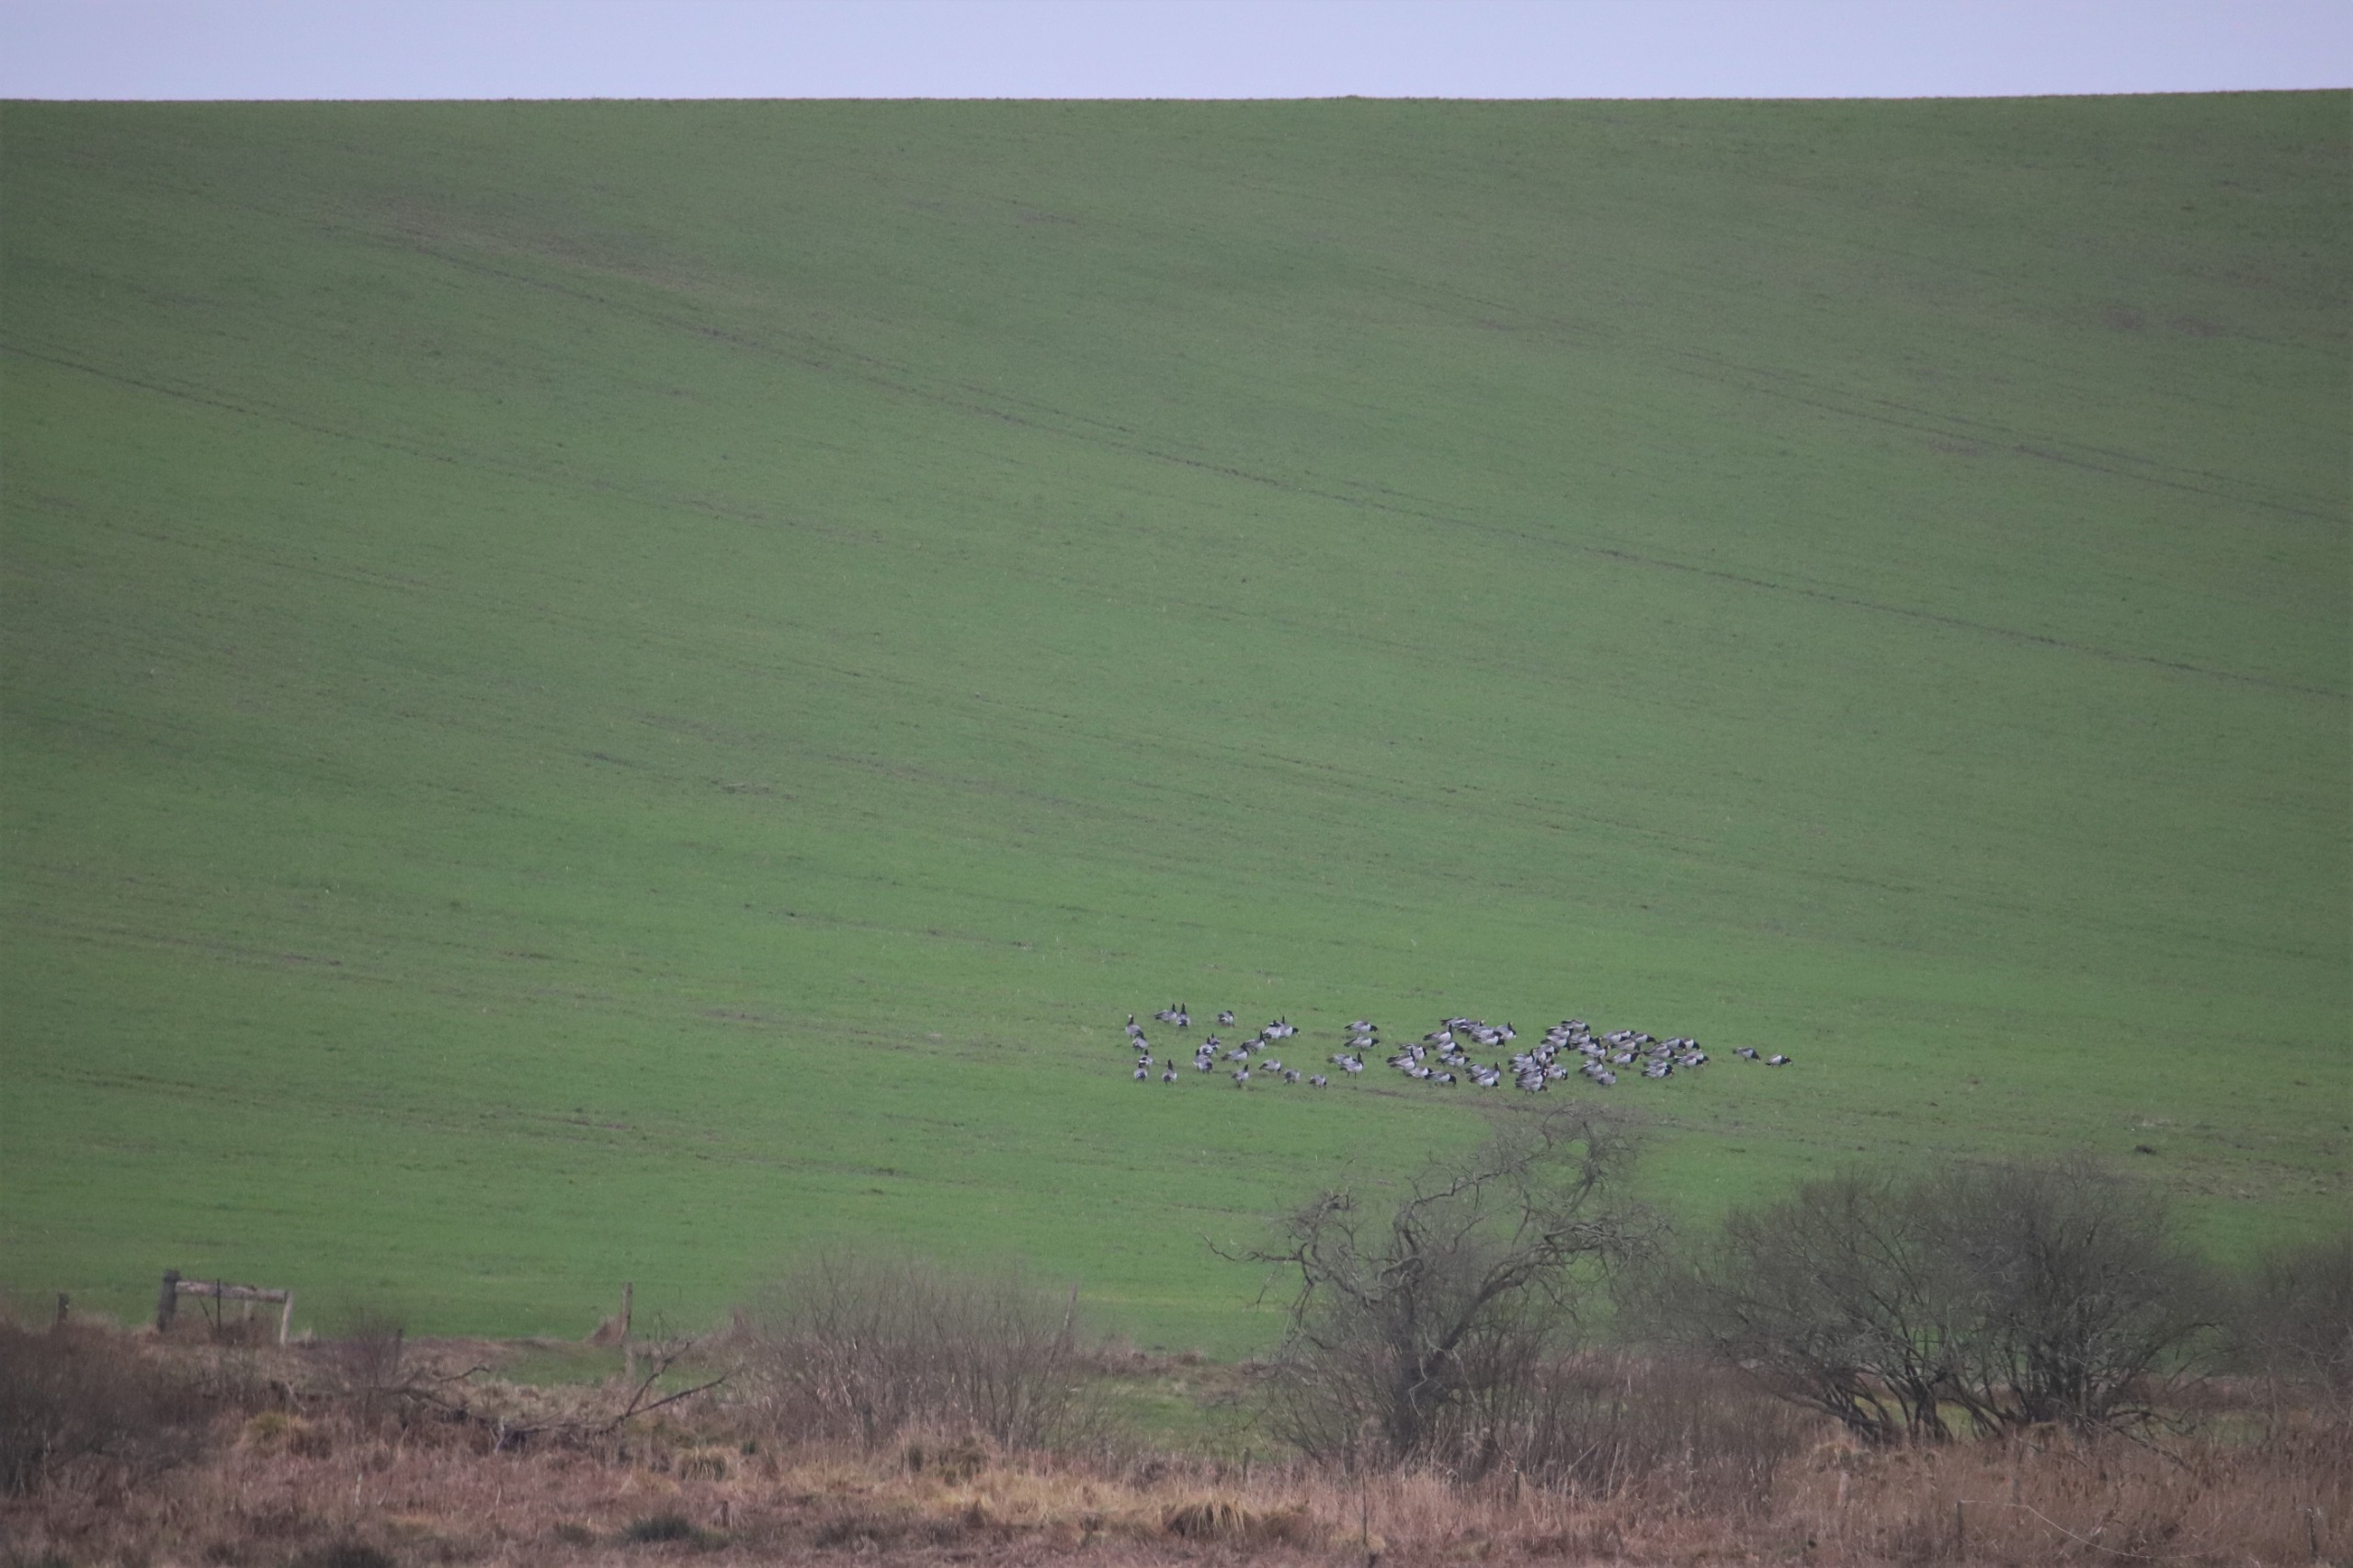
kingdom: Animalia
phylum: Chordata
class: Aves
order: Anseriformes
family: Anatidae
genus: Branta
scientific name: Branta leucopsis
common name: Bramgås
